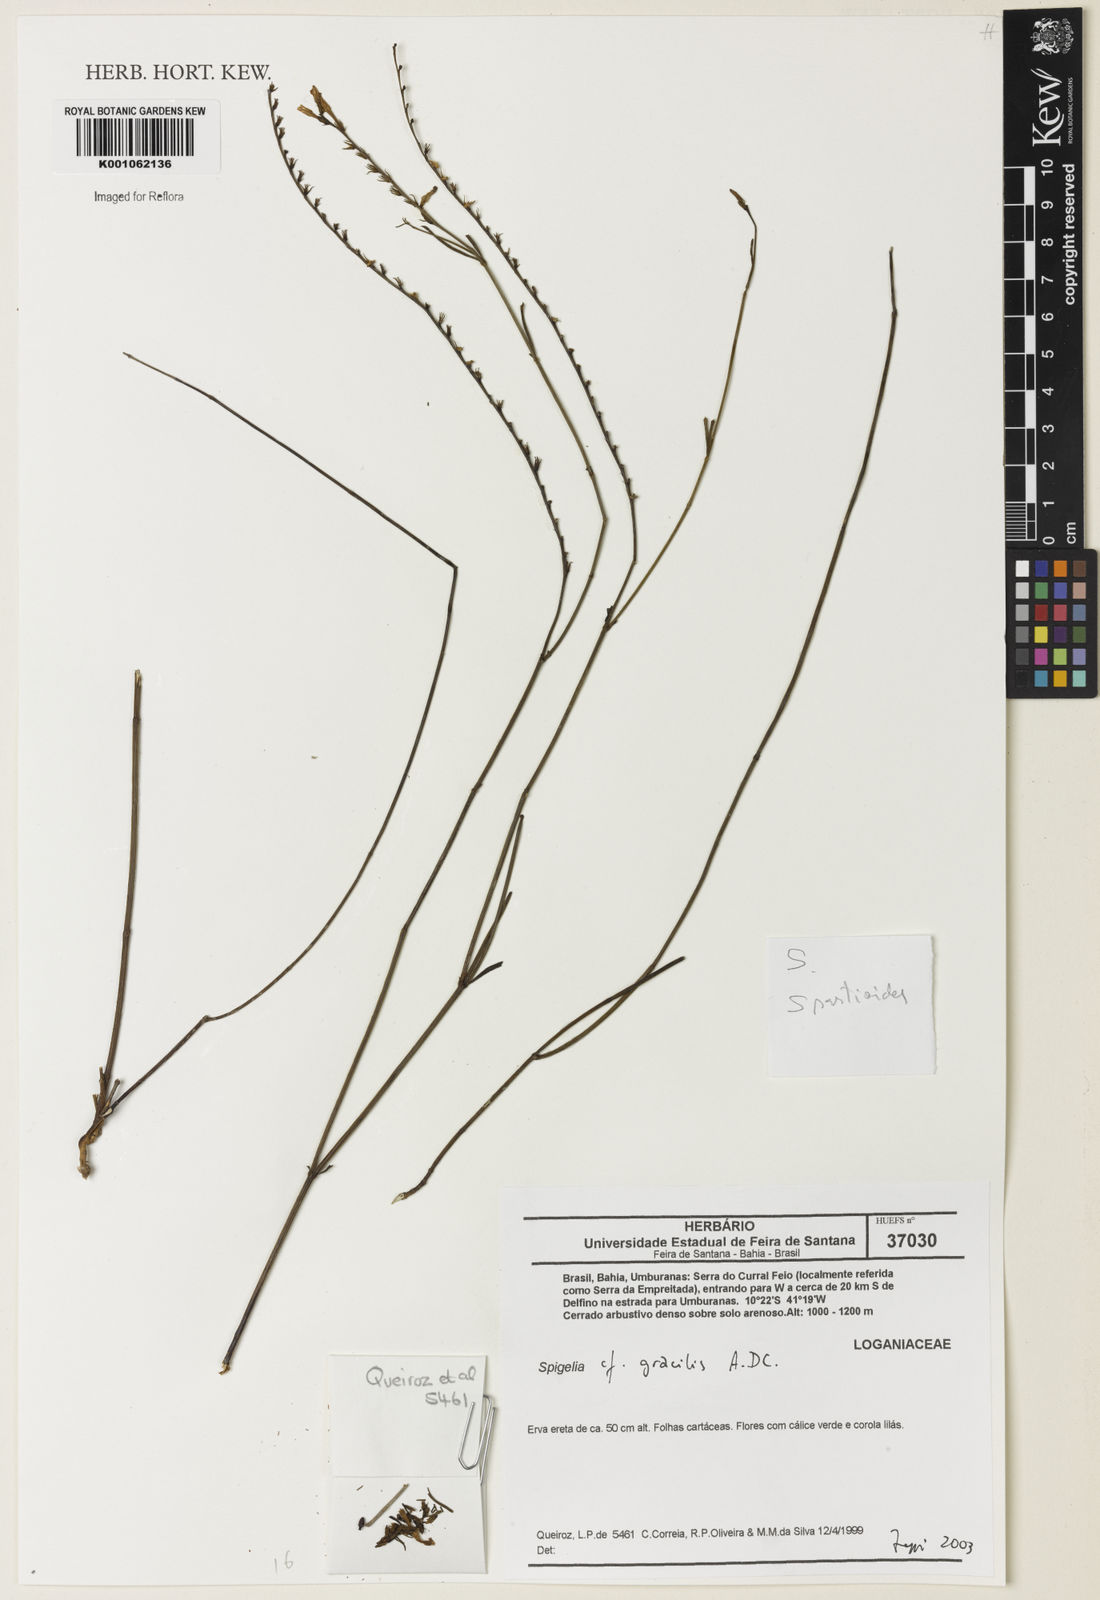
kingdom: Plantae
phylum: Tracheophyta
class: Magnoliopsida
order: Gentianales
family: Loganiaceae
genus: Spigelia
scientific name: Spigelia
